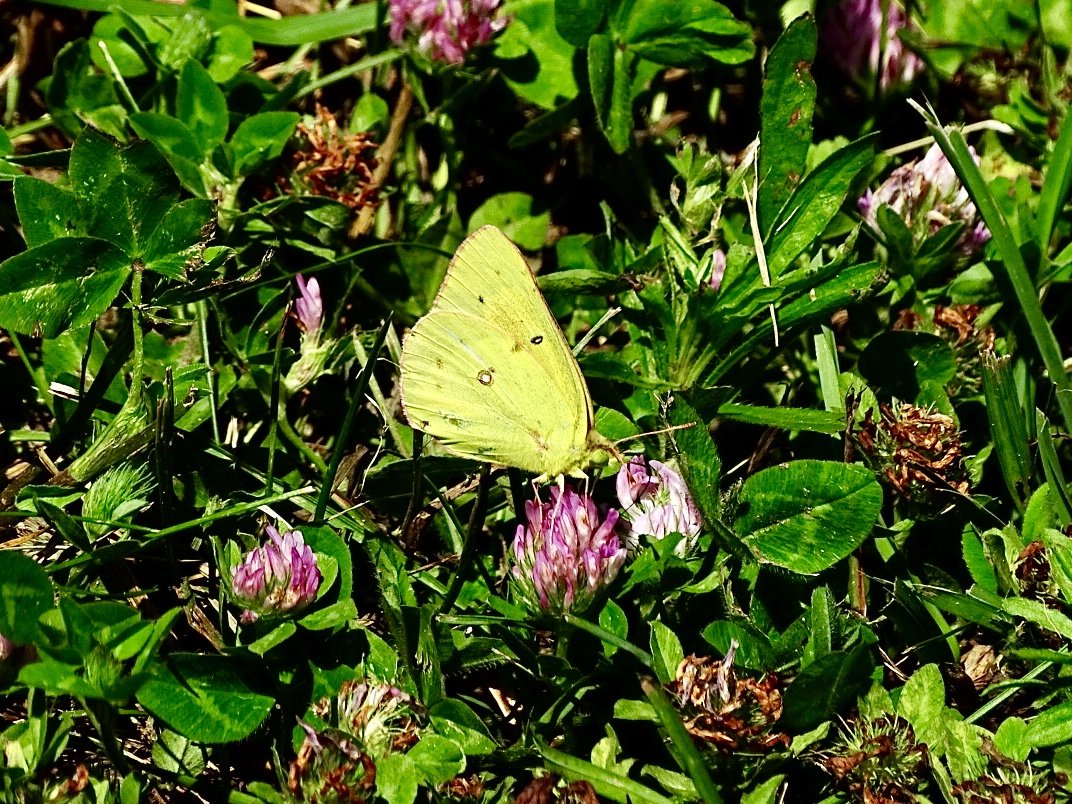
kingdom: Animalia
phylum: Arthropoda
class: Insecta
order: Lepidoptera
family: Pieridae
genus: Colias
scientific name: Colias eurytheme
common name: Orange Sulphur
